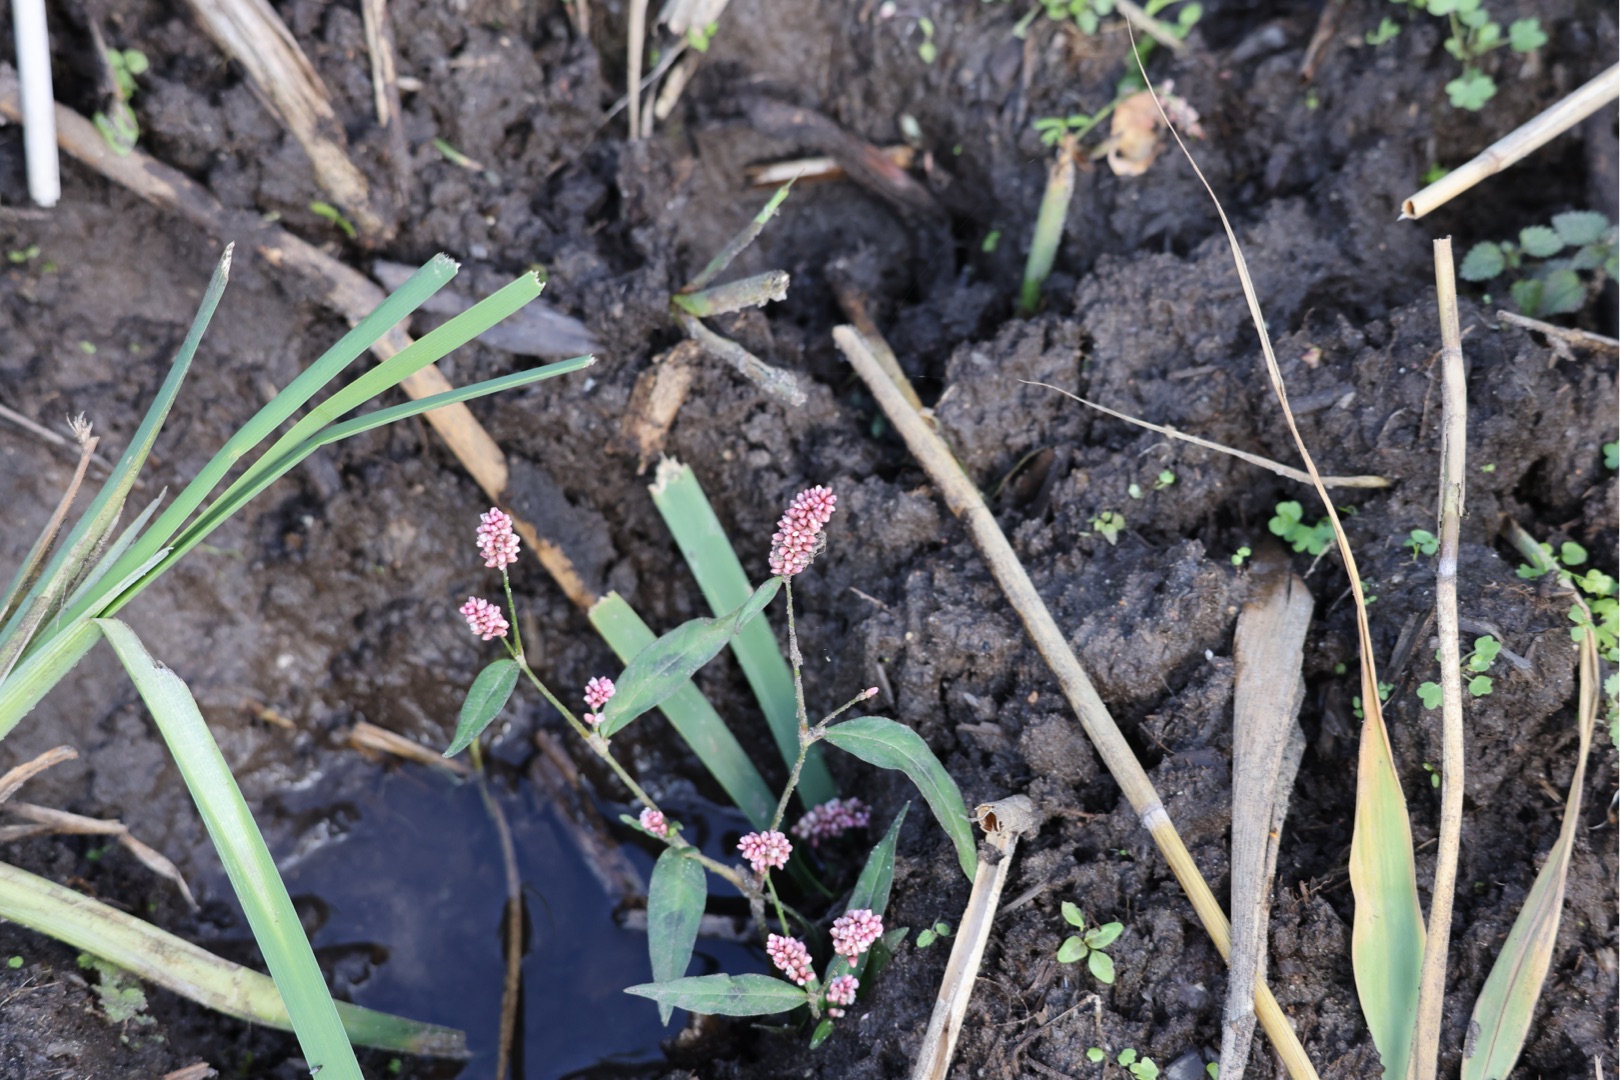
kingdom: Plantae
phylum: Tracheophyta
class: Magnoliopsida
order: Caryophyllales
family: Polygonaceae
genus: Persicaria
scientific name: Persicaria maculosa
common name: Fersken-pileurt
